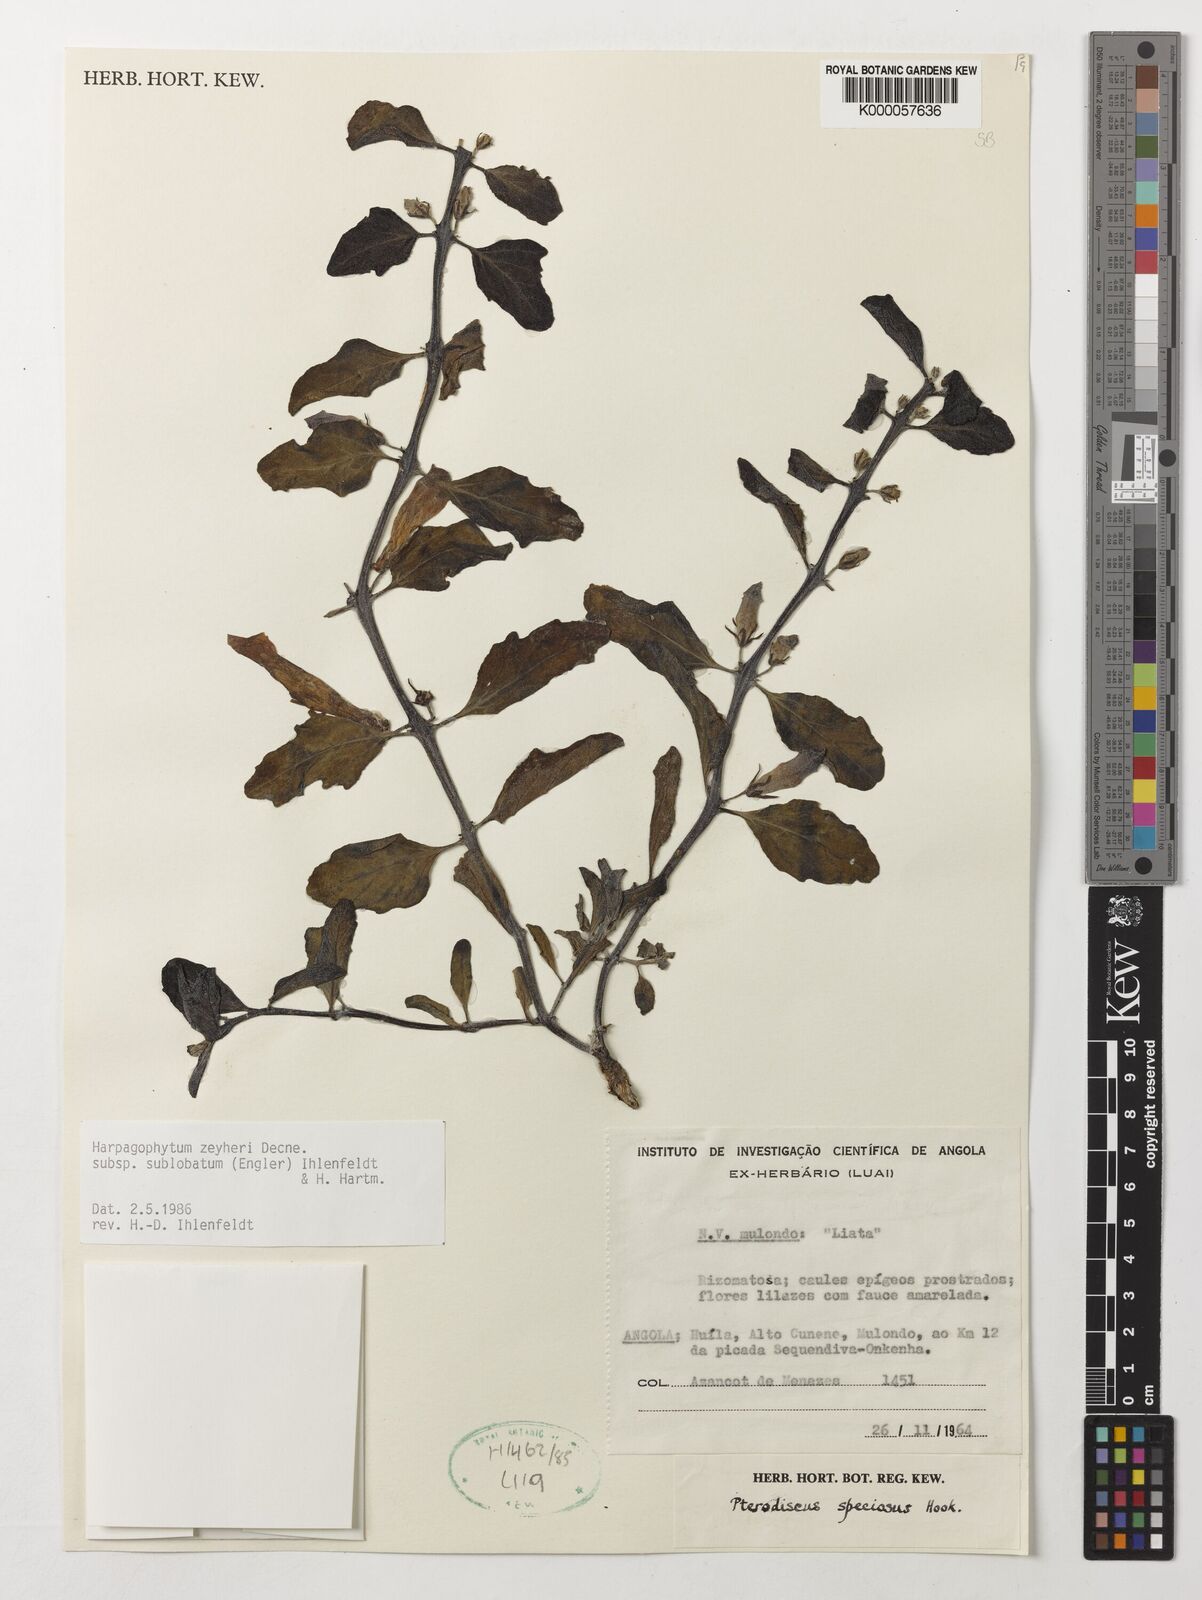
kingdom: Plantae
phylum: Tracheophyta
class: Magnoliopsida
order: Lamiales
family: Pedaliaceae
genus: Harpagophytum
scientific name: Harpagophytum zeyheri
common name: Grappleplant
